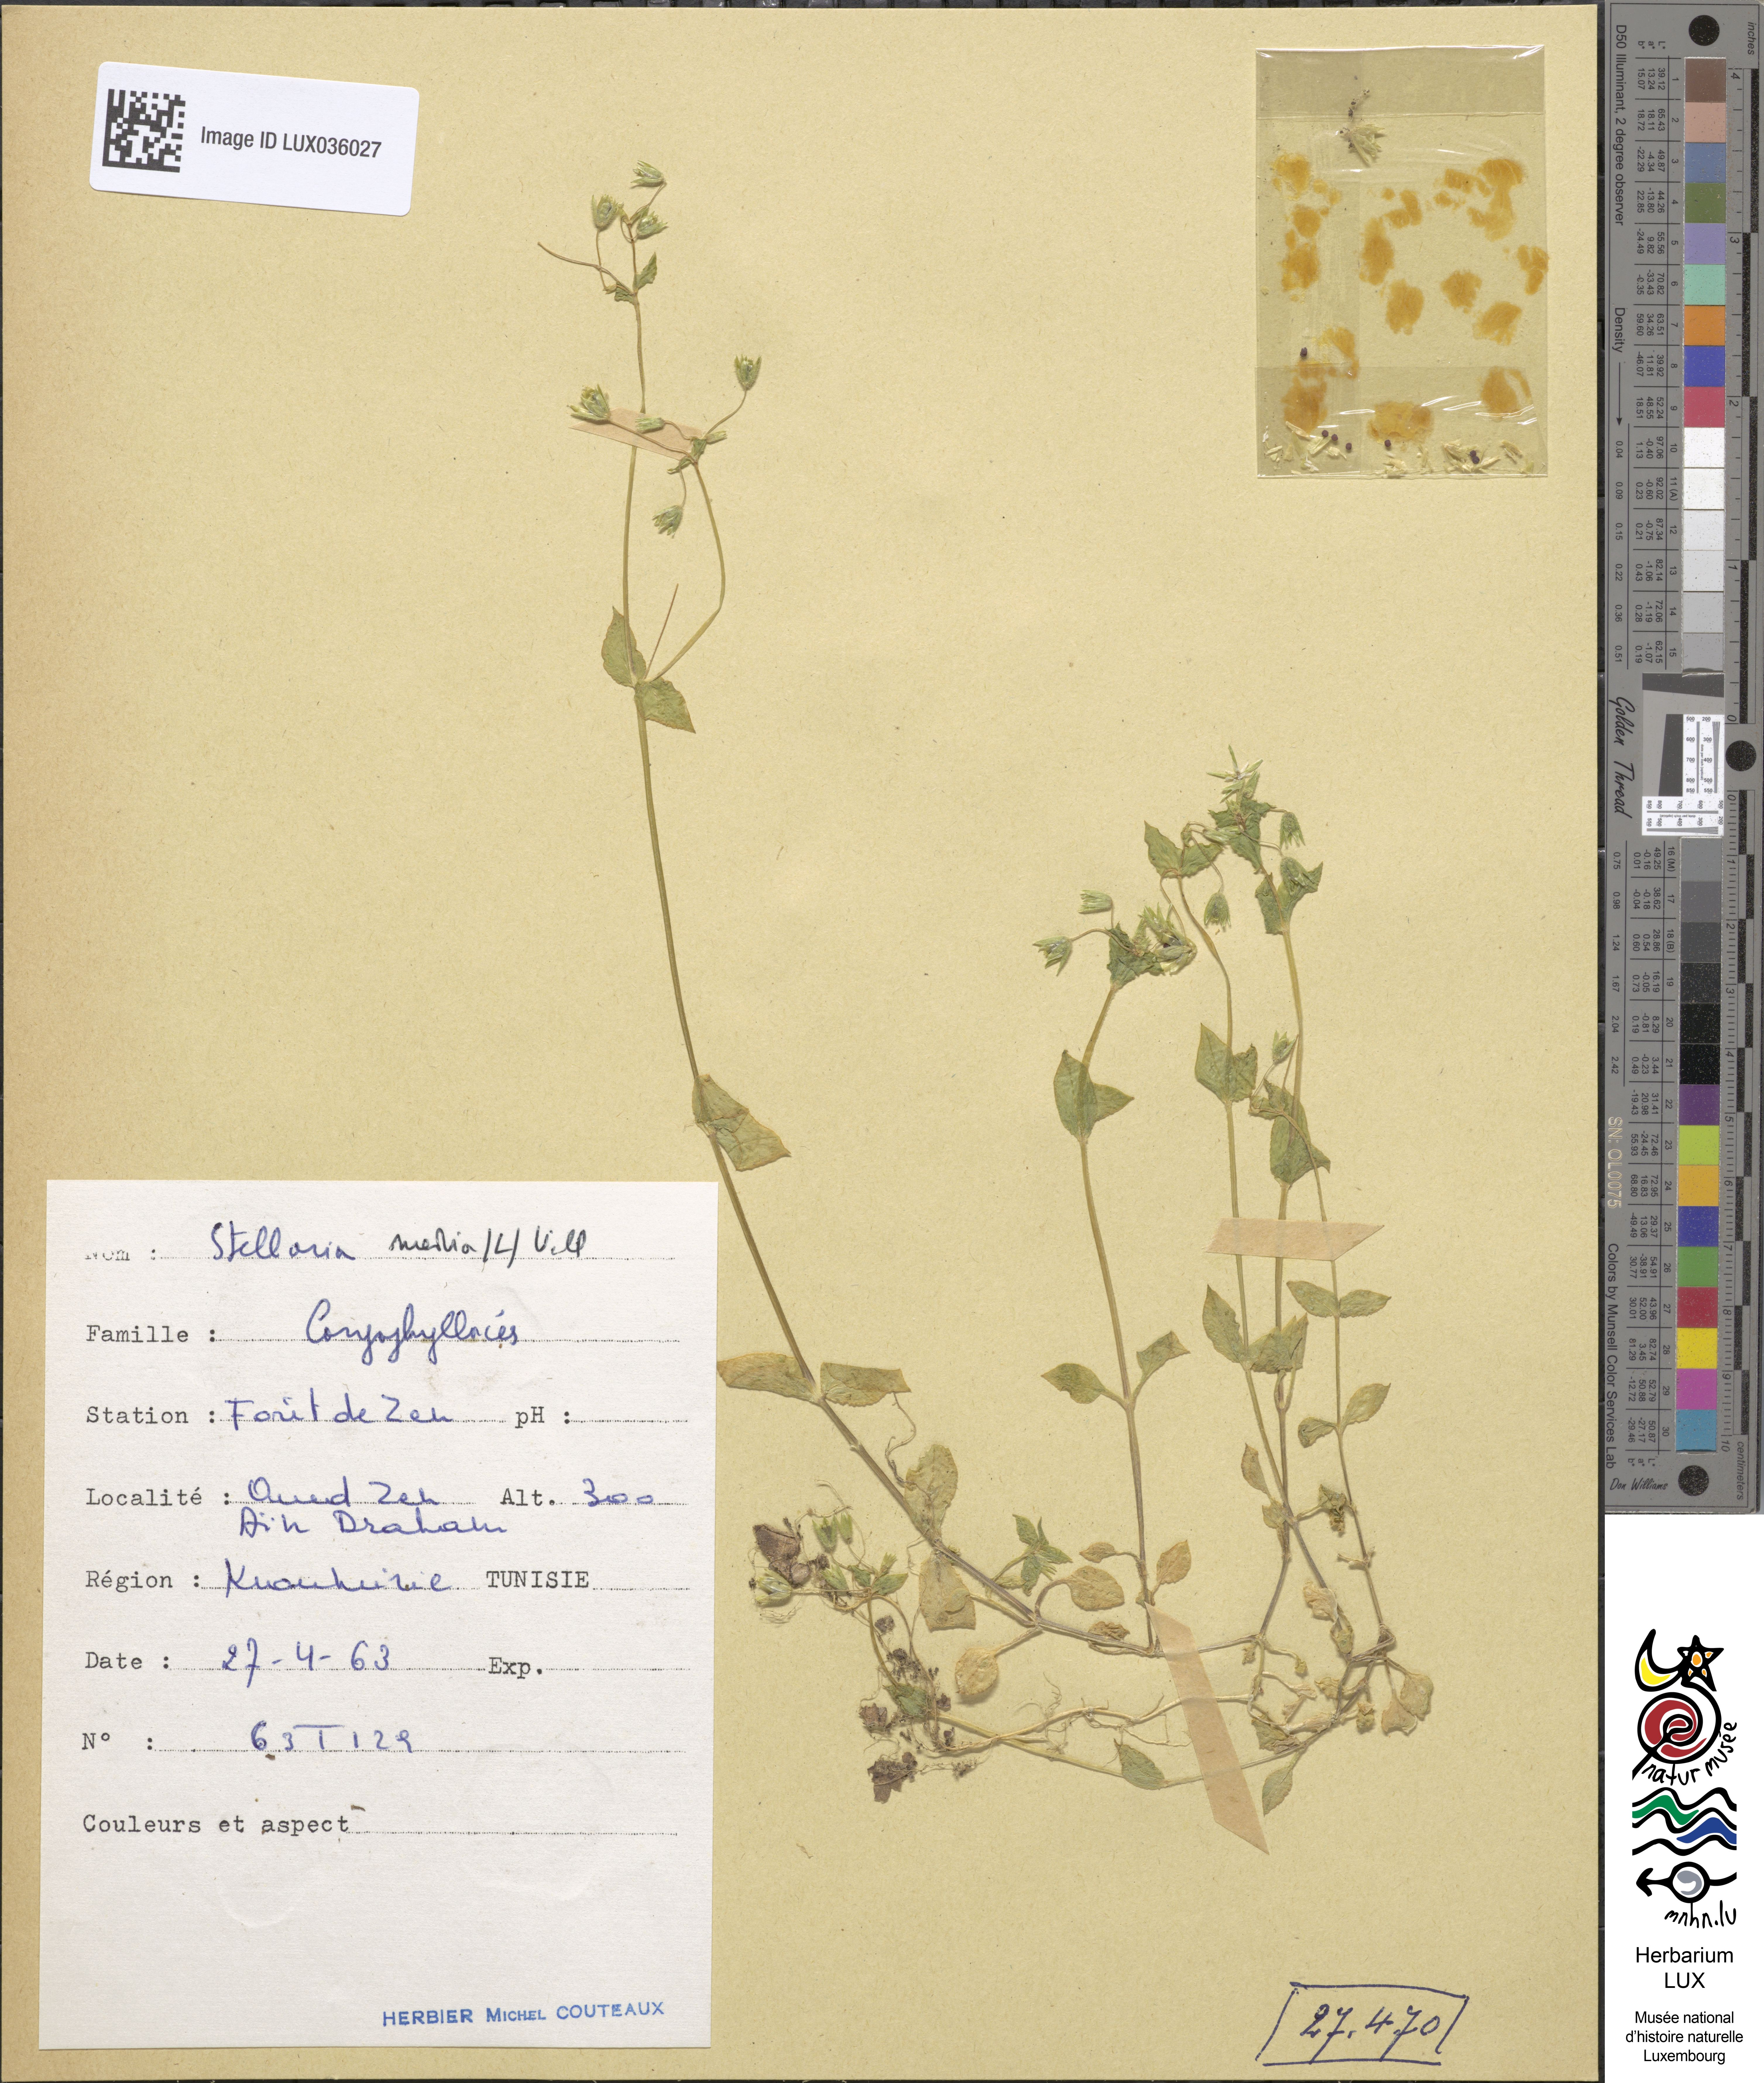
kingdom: Plantae
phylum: Tracheophyta
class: Magnoliopsida
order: Caryophyllales
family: Caryophyllaceae
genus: Stellaria
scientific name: Stellaria media
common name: Common chickweed
